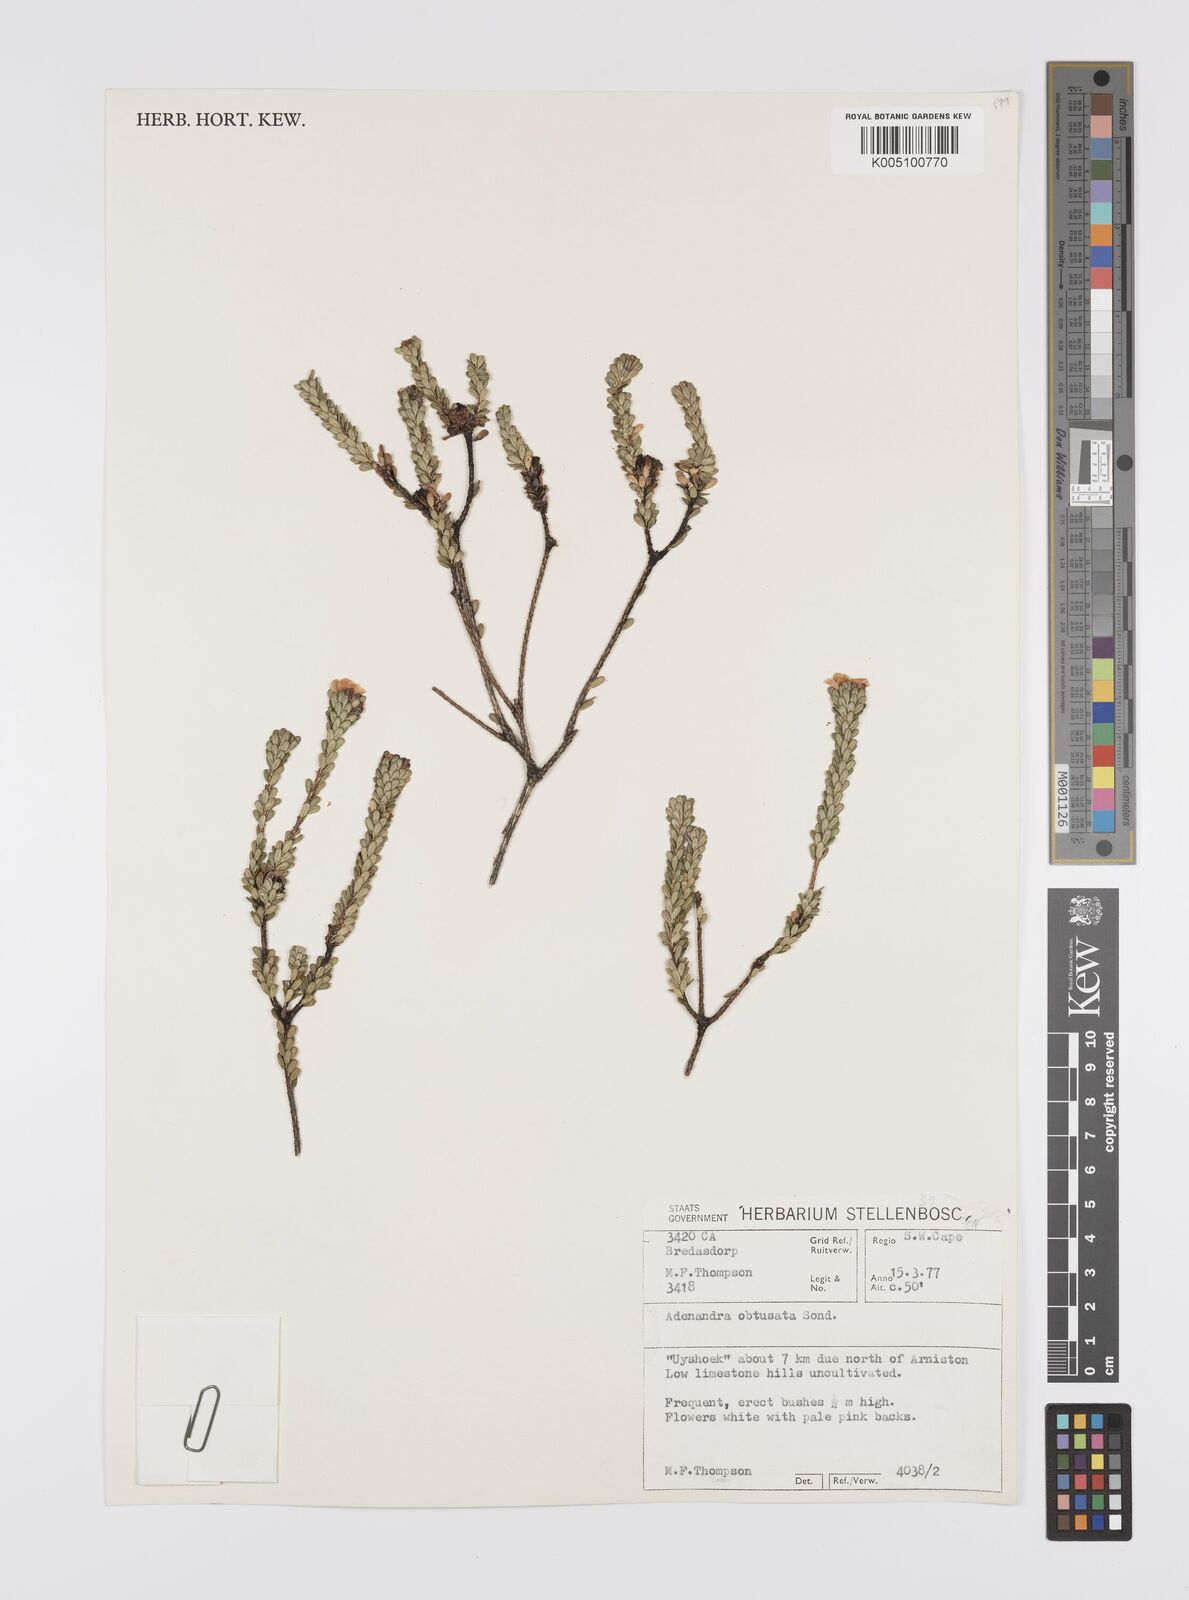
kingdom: Plantae
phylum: Tracheophyta
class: Magnoliopsida
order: Sapindales
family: Rutaceae
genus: Adenandra
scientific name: Adenandra obtusata
